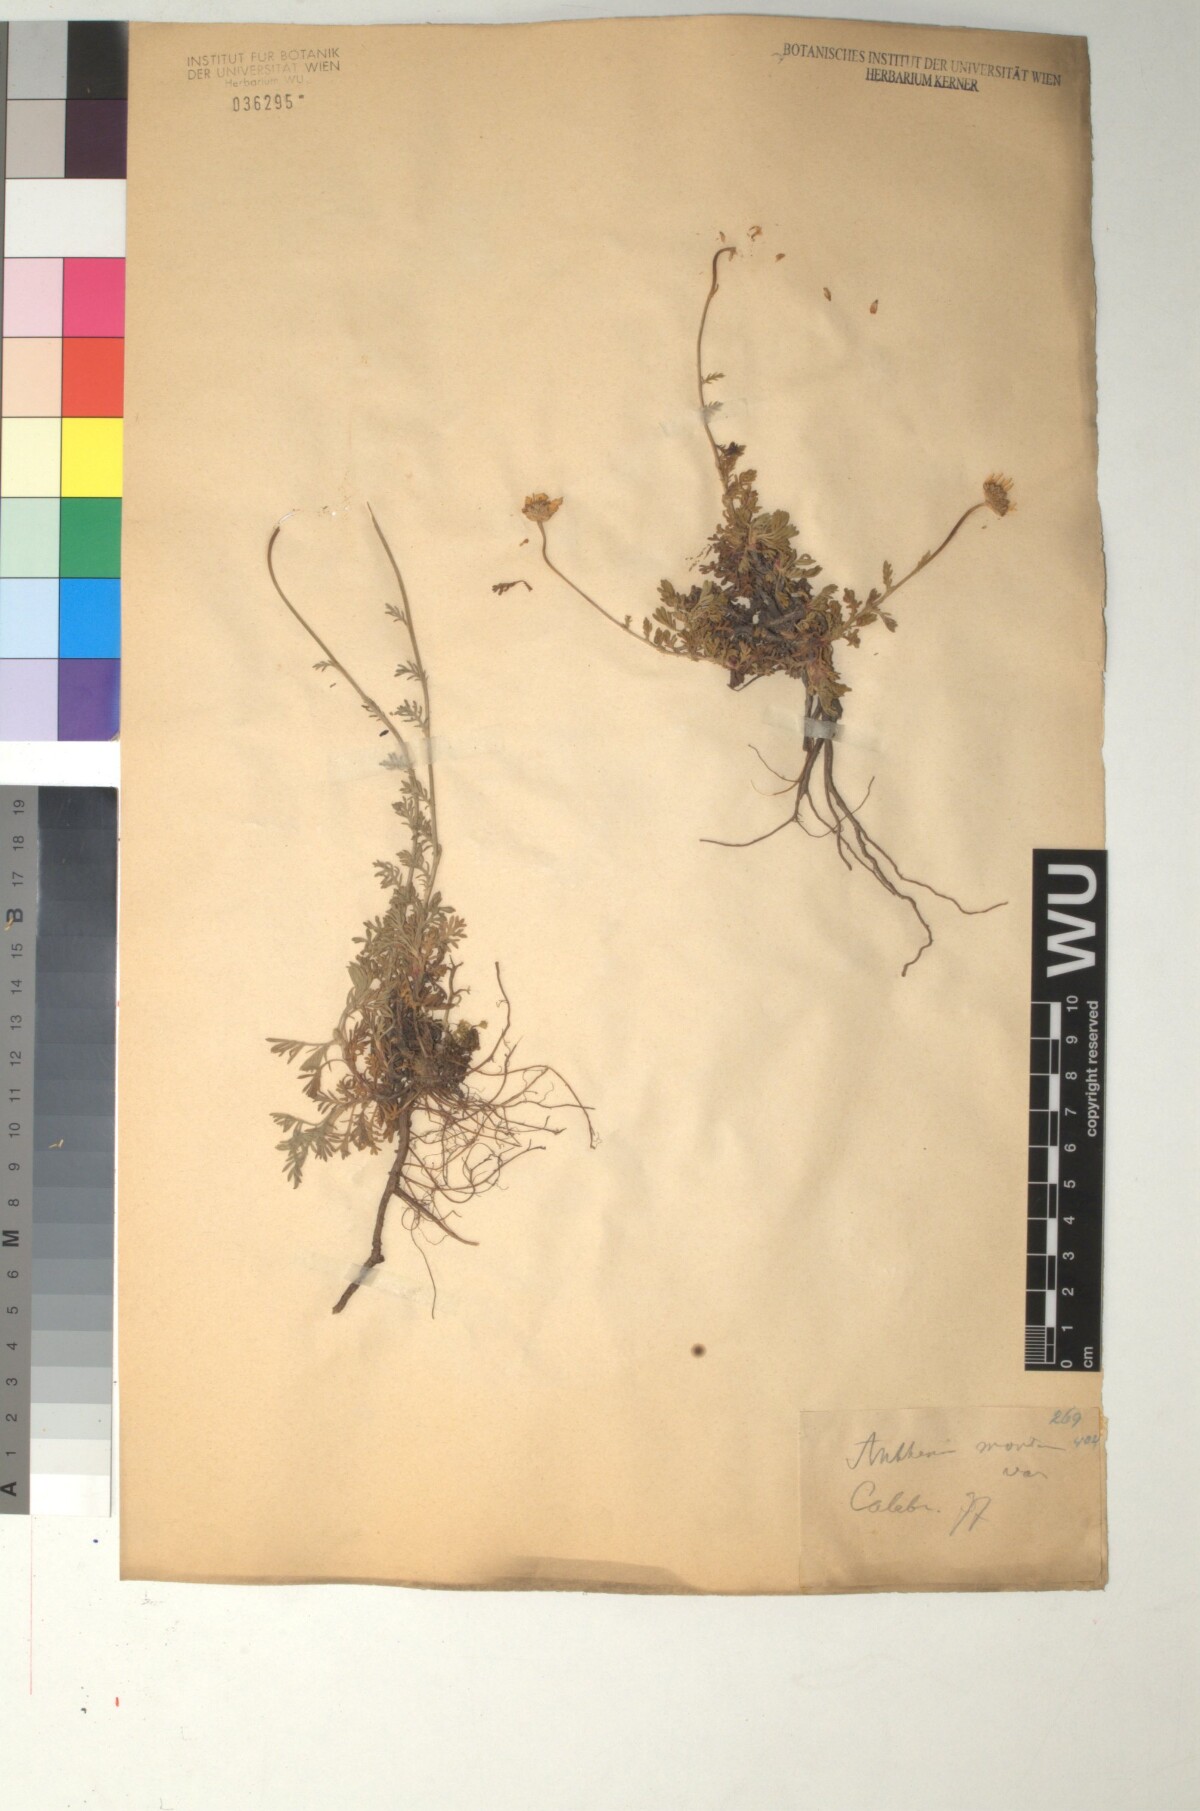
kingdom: Plantae
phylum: Tracheophyta
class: Magnoliopsida
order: Asterales
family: Asteraceae
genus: Anthemis
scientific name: Anthemis cretica
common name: Mountain dog-daisy
